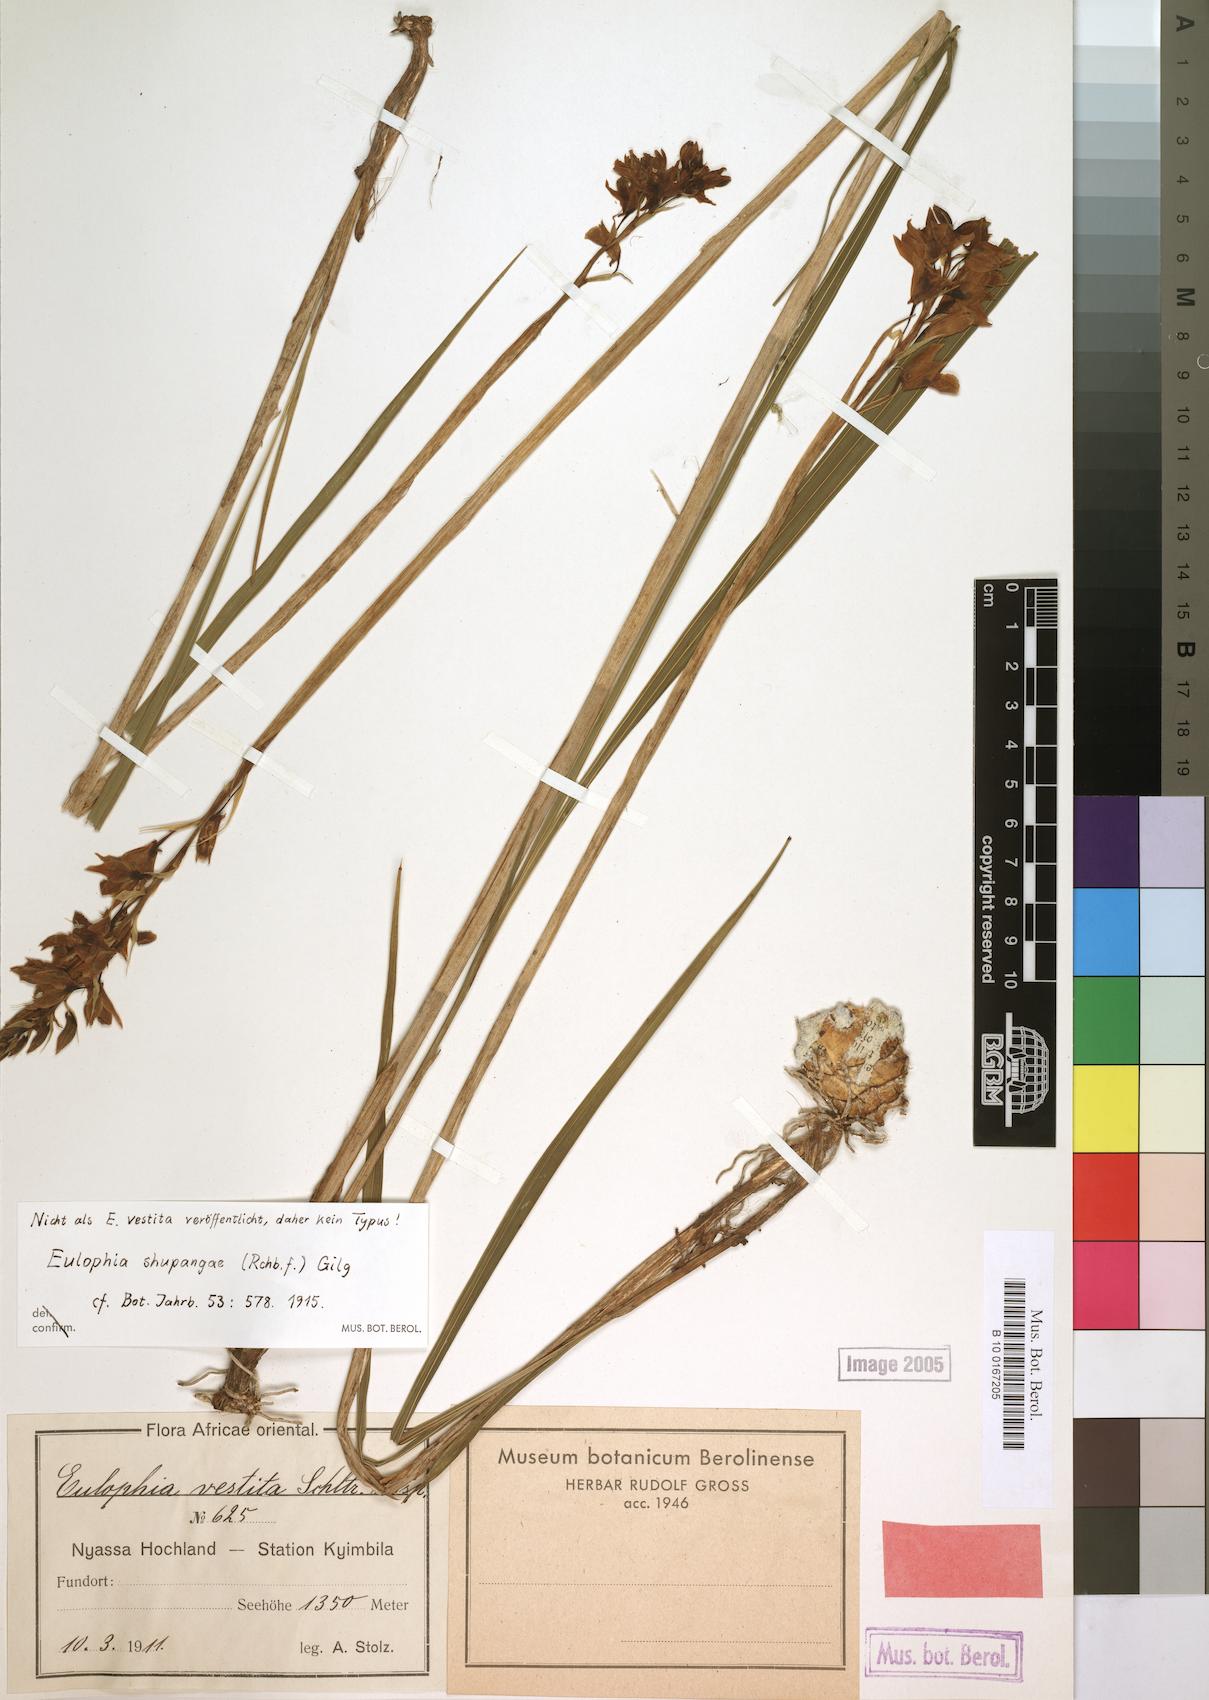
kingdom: Plantae
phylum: Tracheophyta
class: Liliopsida
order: Asparagales
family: Orchidaceae
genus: Eulophia
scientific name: Eulophia shupangae
